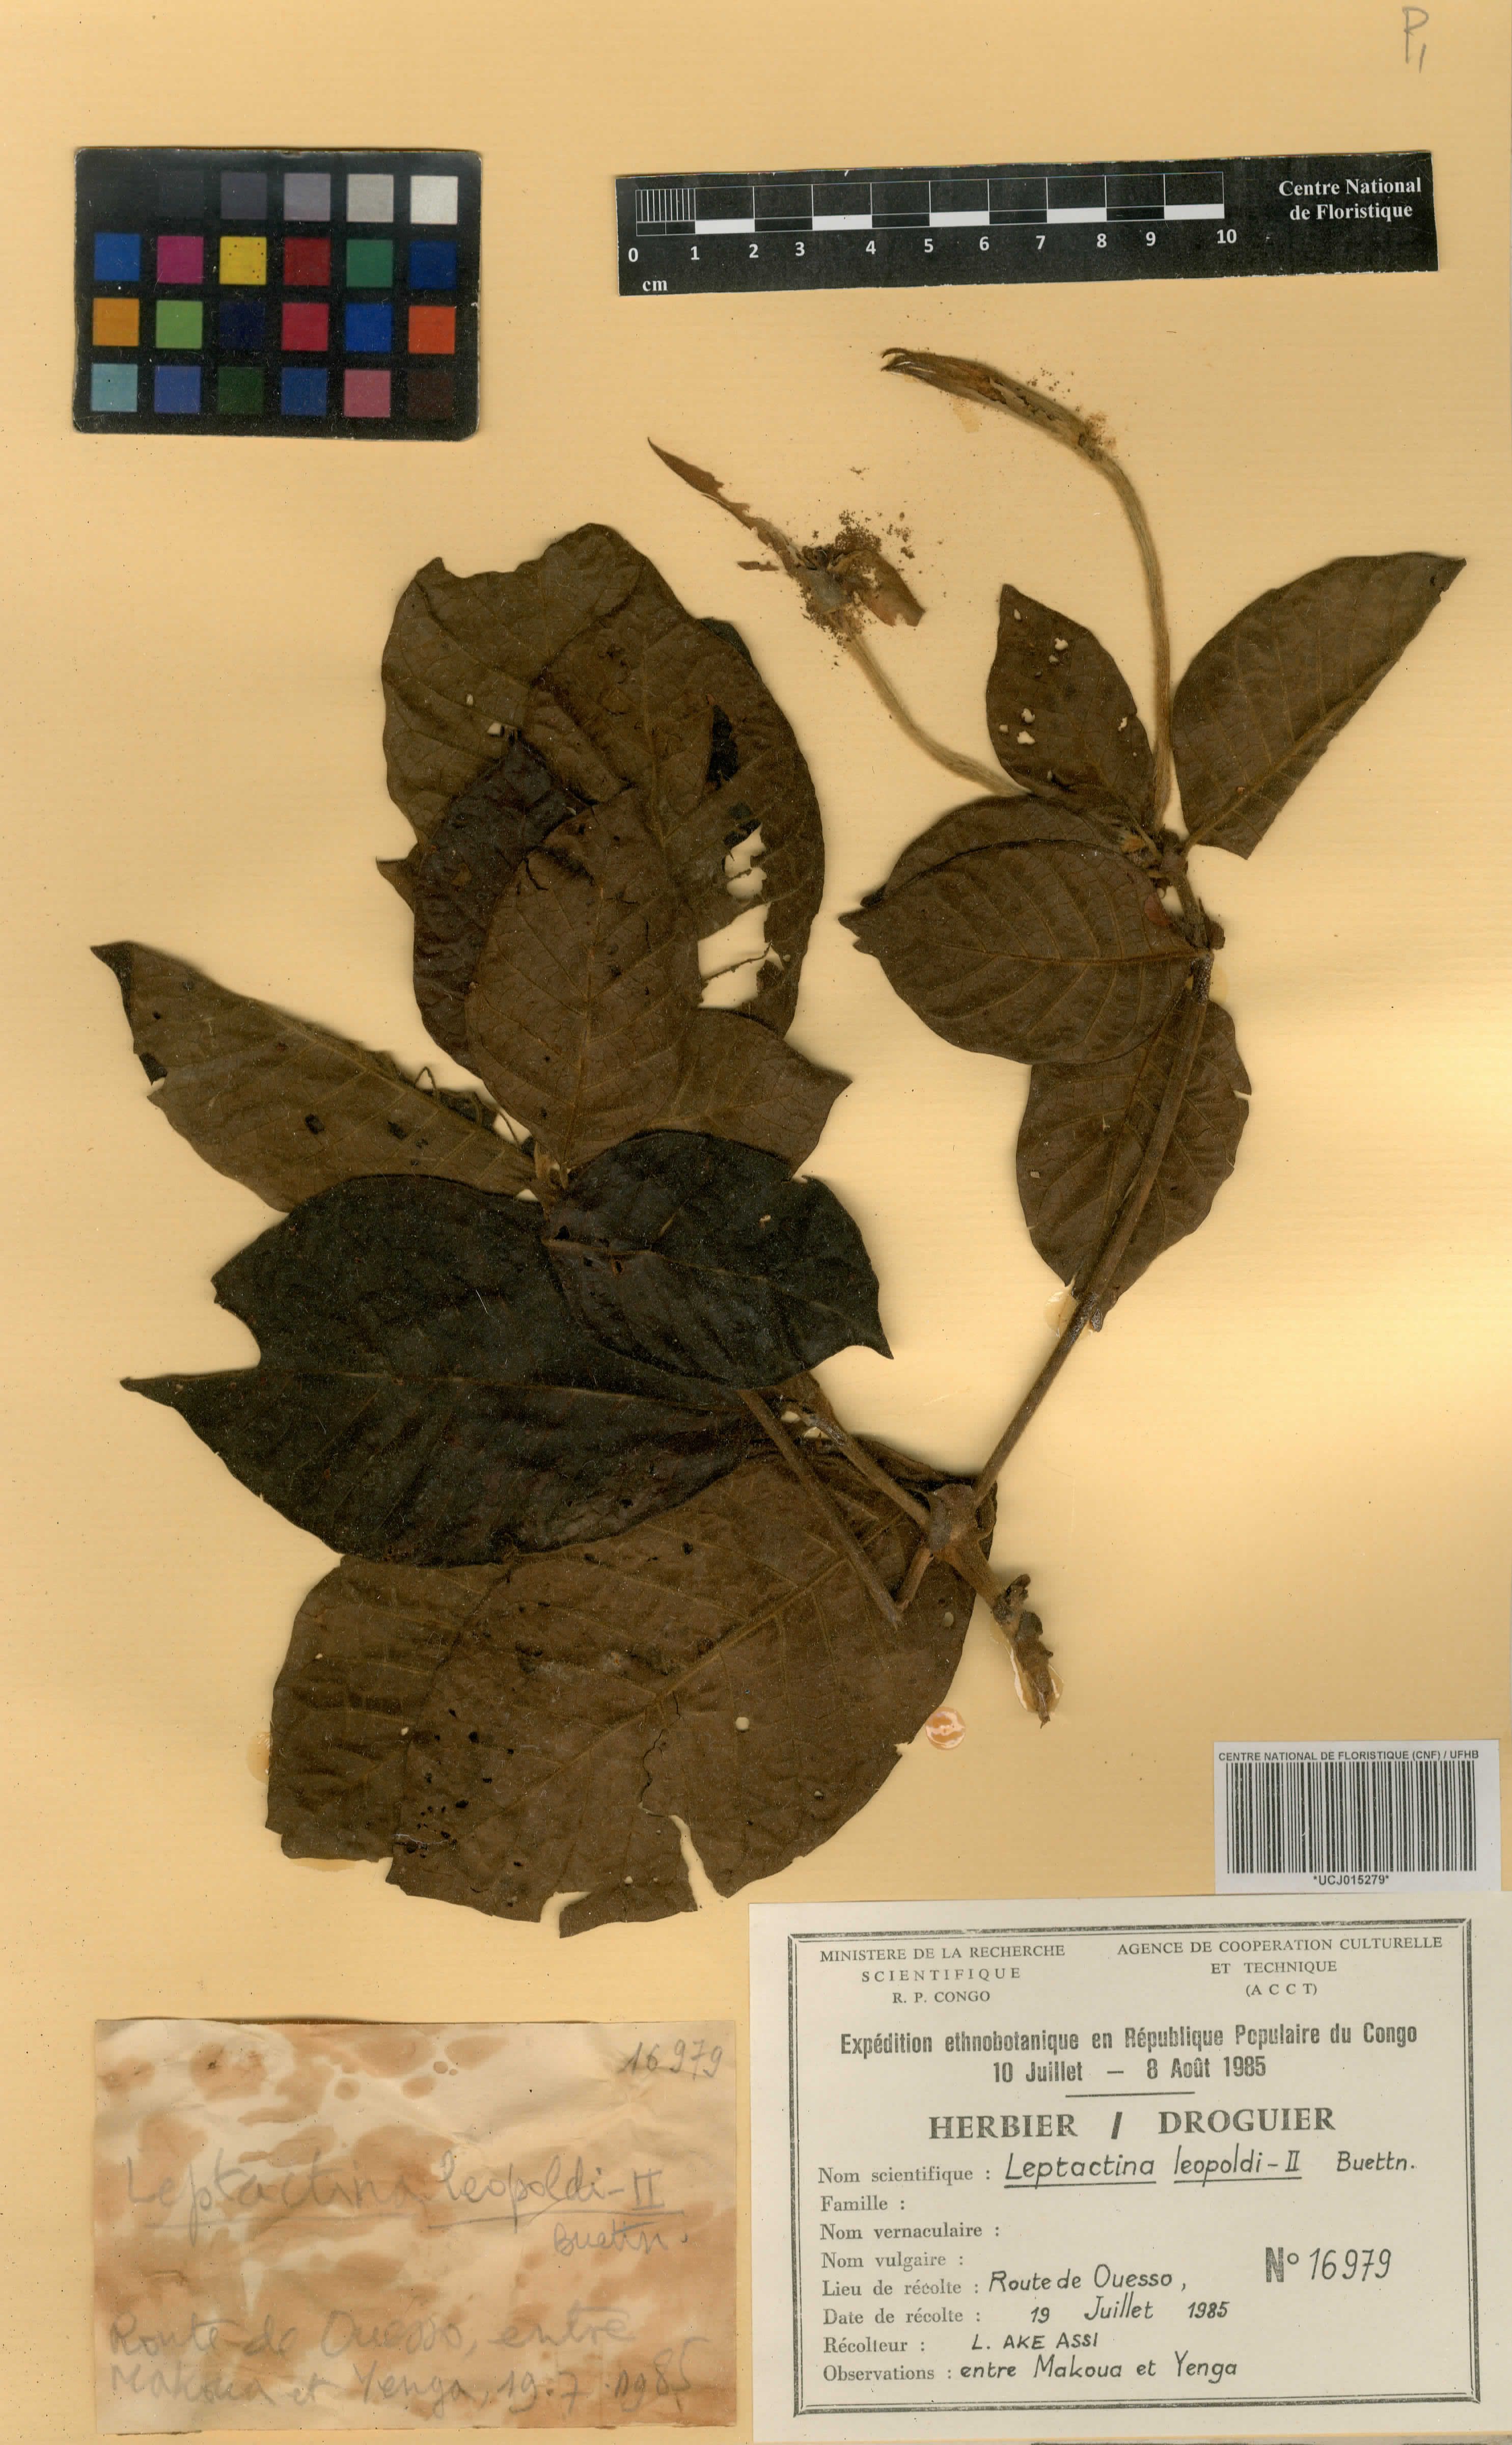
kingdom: Plantae
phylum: Tracheophyta
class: Magnoliopsida
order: Gentianales
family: Rubiaceae
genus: Leptactina
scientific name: Leptactina formosa
